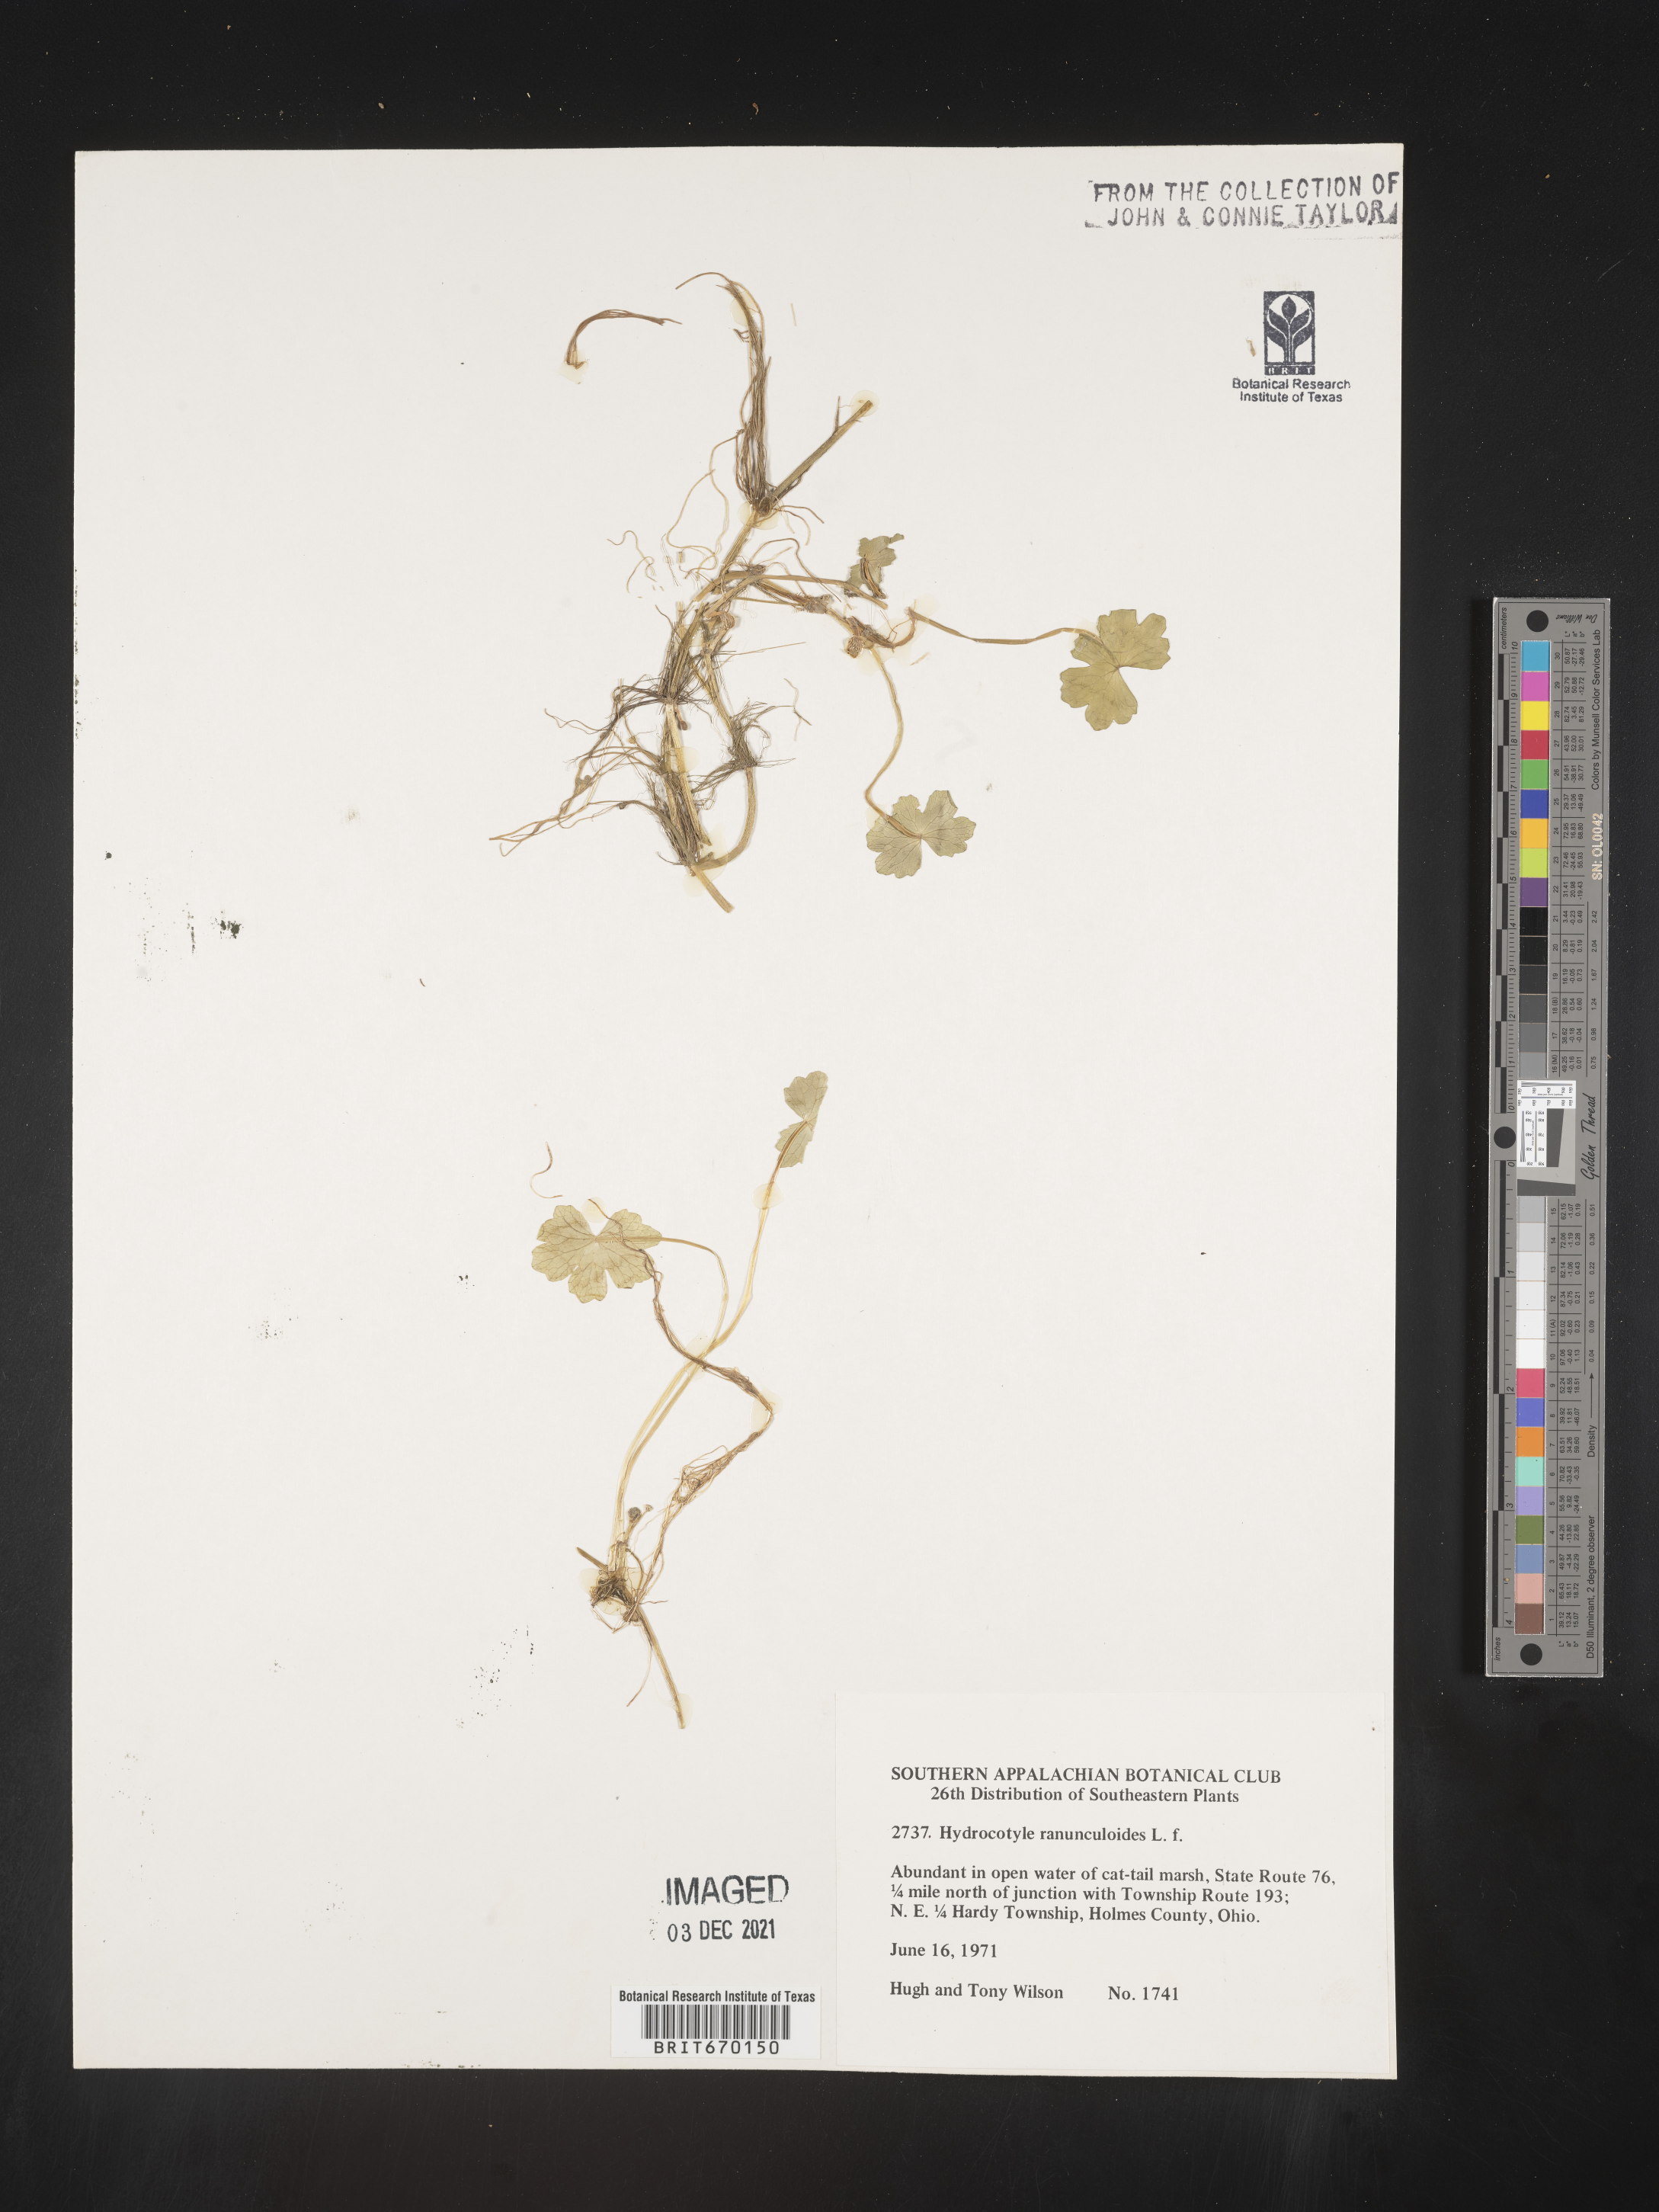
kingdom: Plantae
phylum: Tracheophyta
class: Magnoliopsida
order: Apiales
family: Araliaceae
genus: Hydrocotyle
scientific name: Hydrocotyle ranunculoides
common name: Floating pennywort
